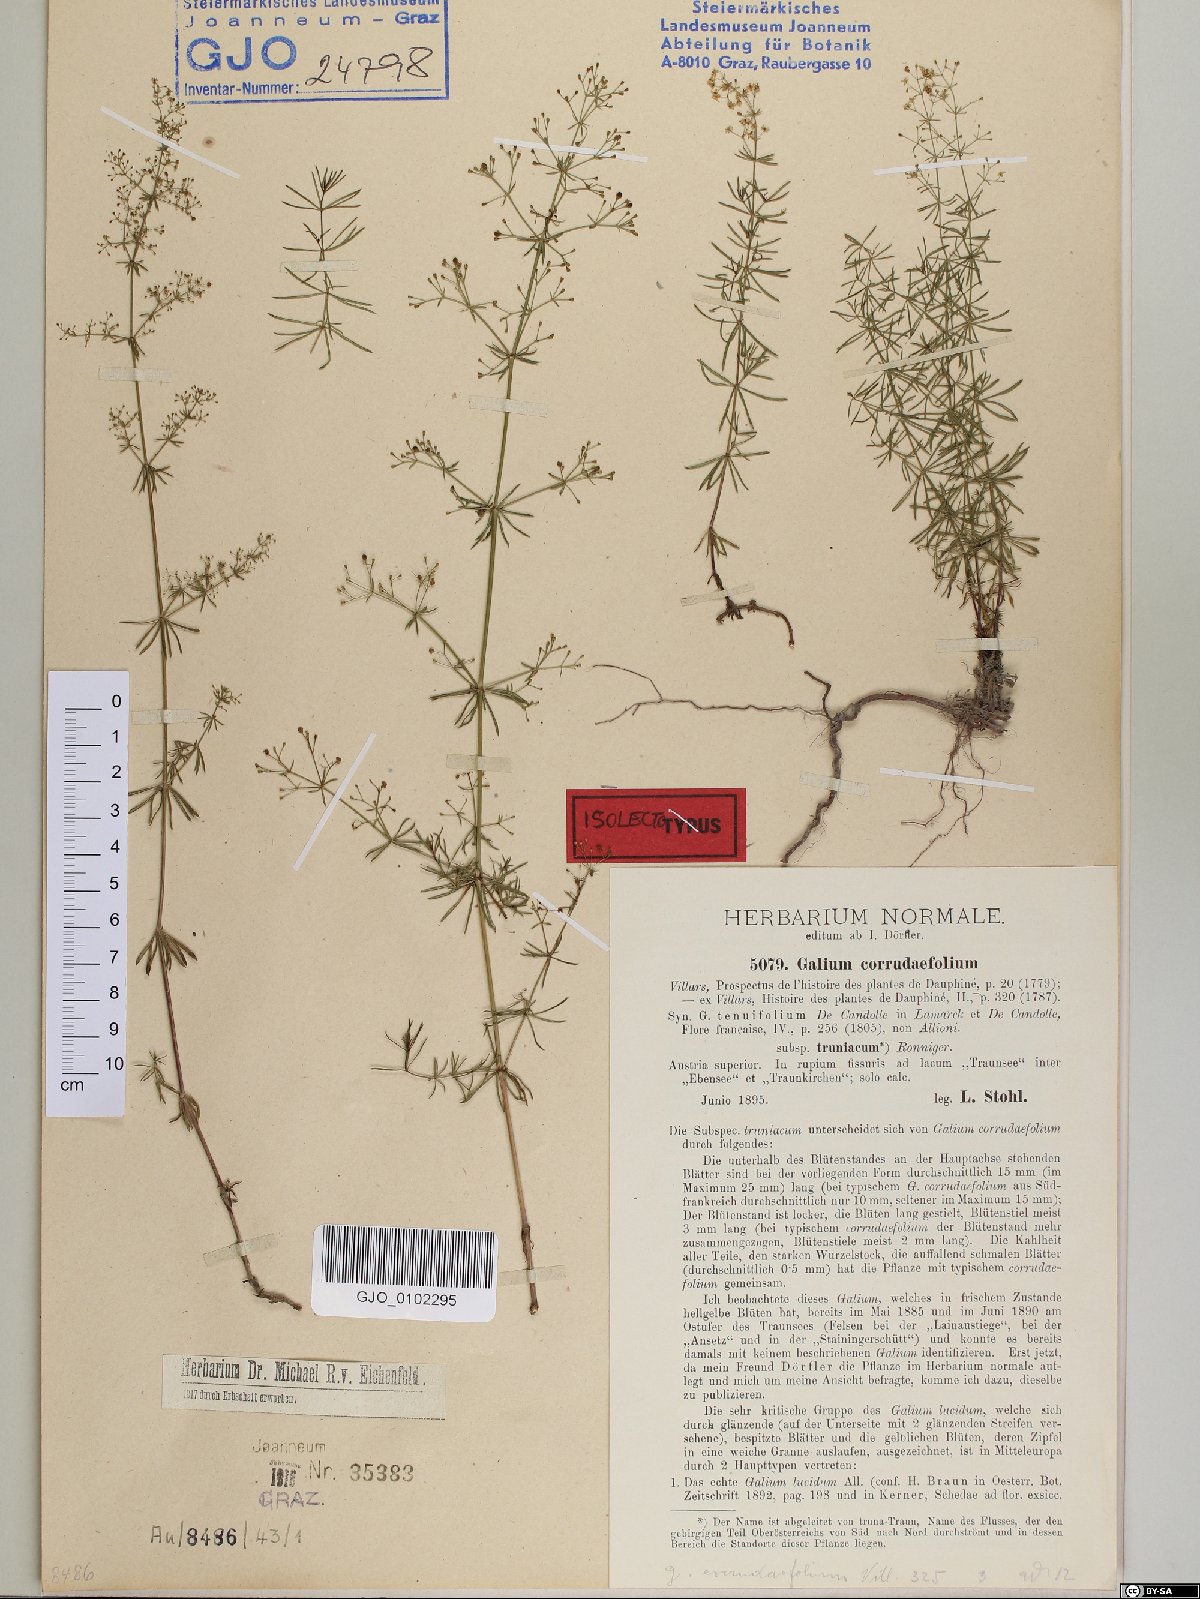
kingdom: Plantae
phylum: Tracheophyta
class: Magnoliopsida
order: Gentianales
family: Rubiaceae
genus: Galium
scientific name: Galium truniacum
